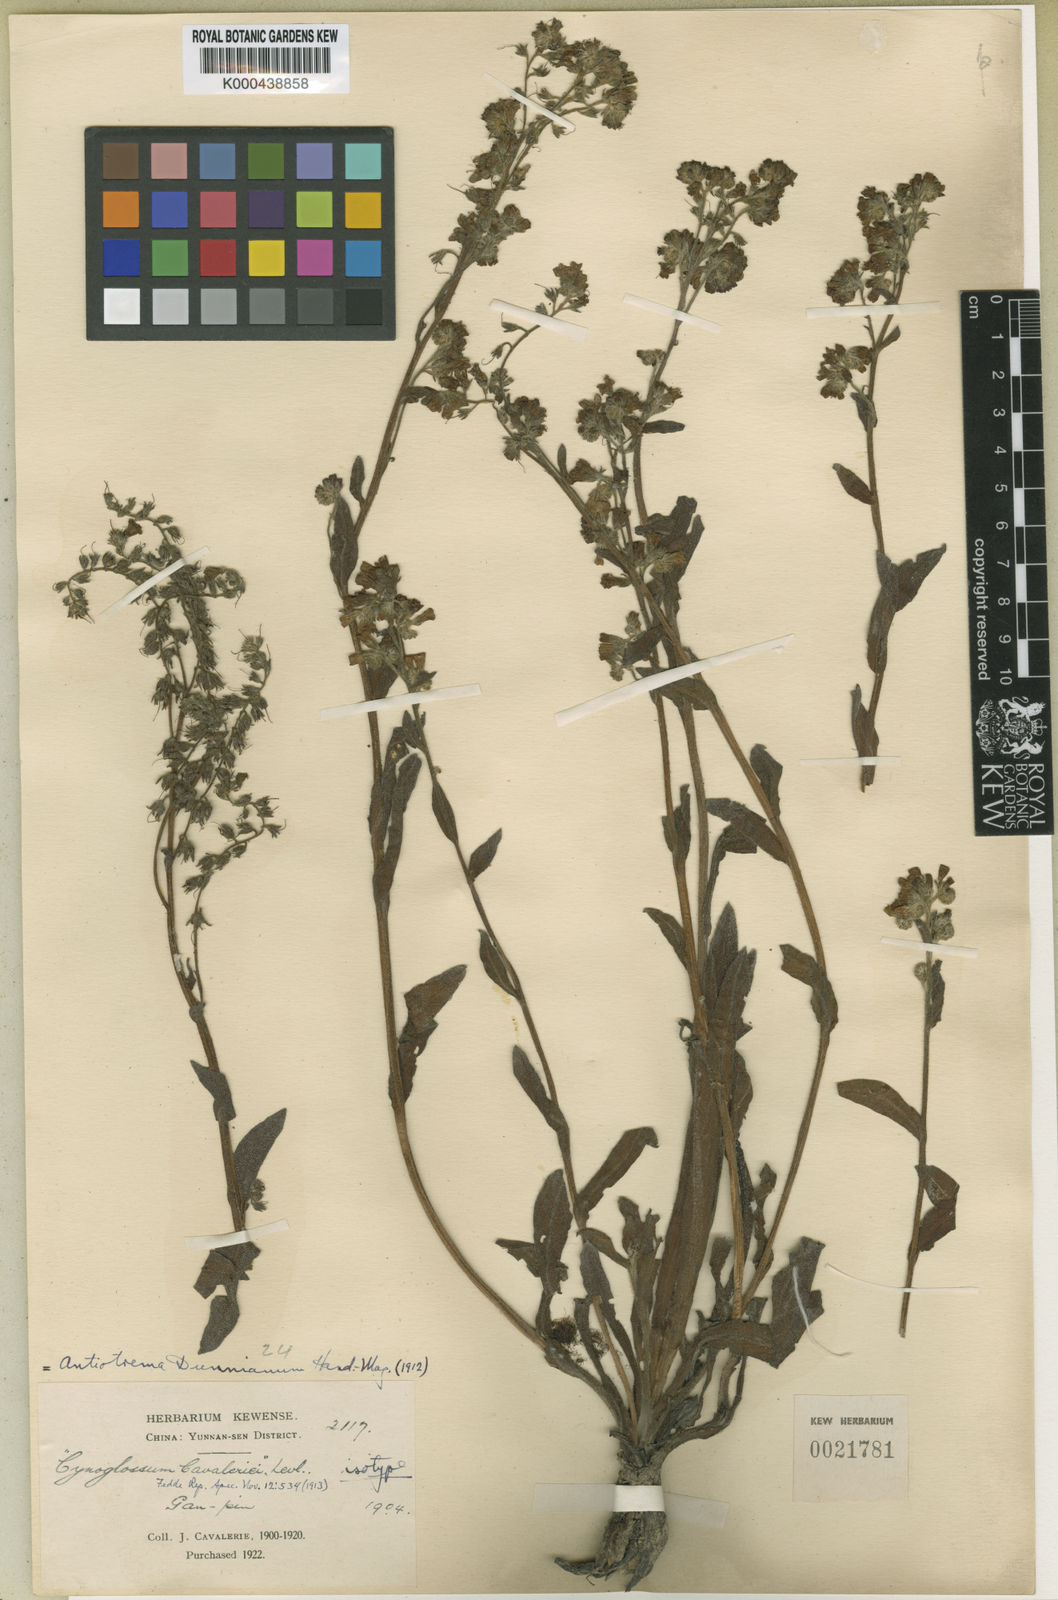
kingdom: Plantae
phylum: Tracheophyta
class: Magnoliopsida
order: Boraginales
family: Boraginaceae
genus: Antiotrema
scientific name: Antiotrema dunnianum
